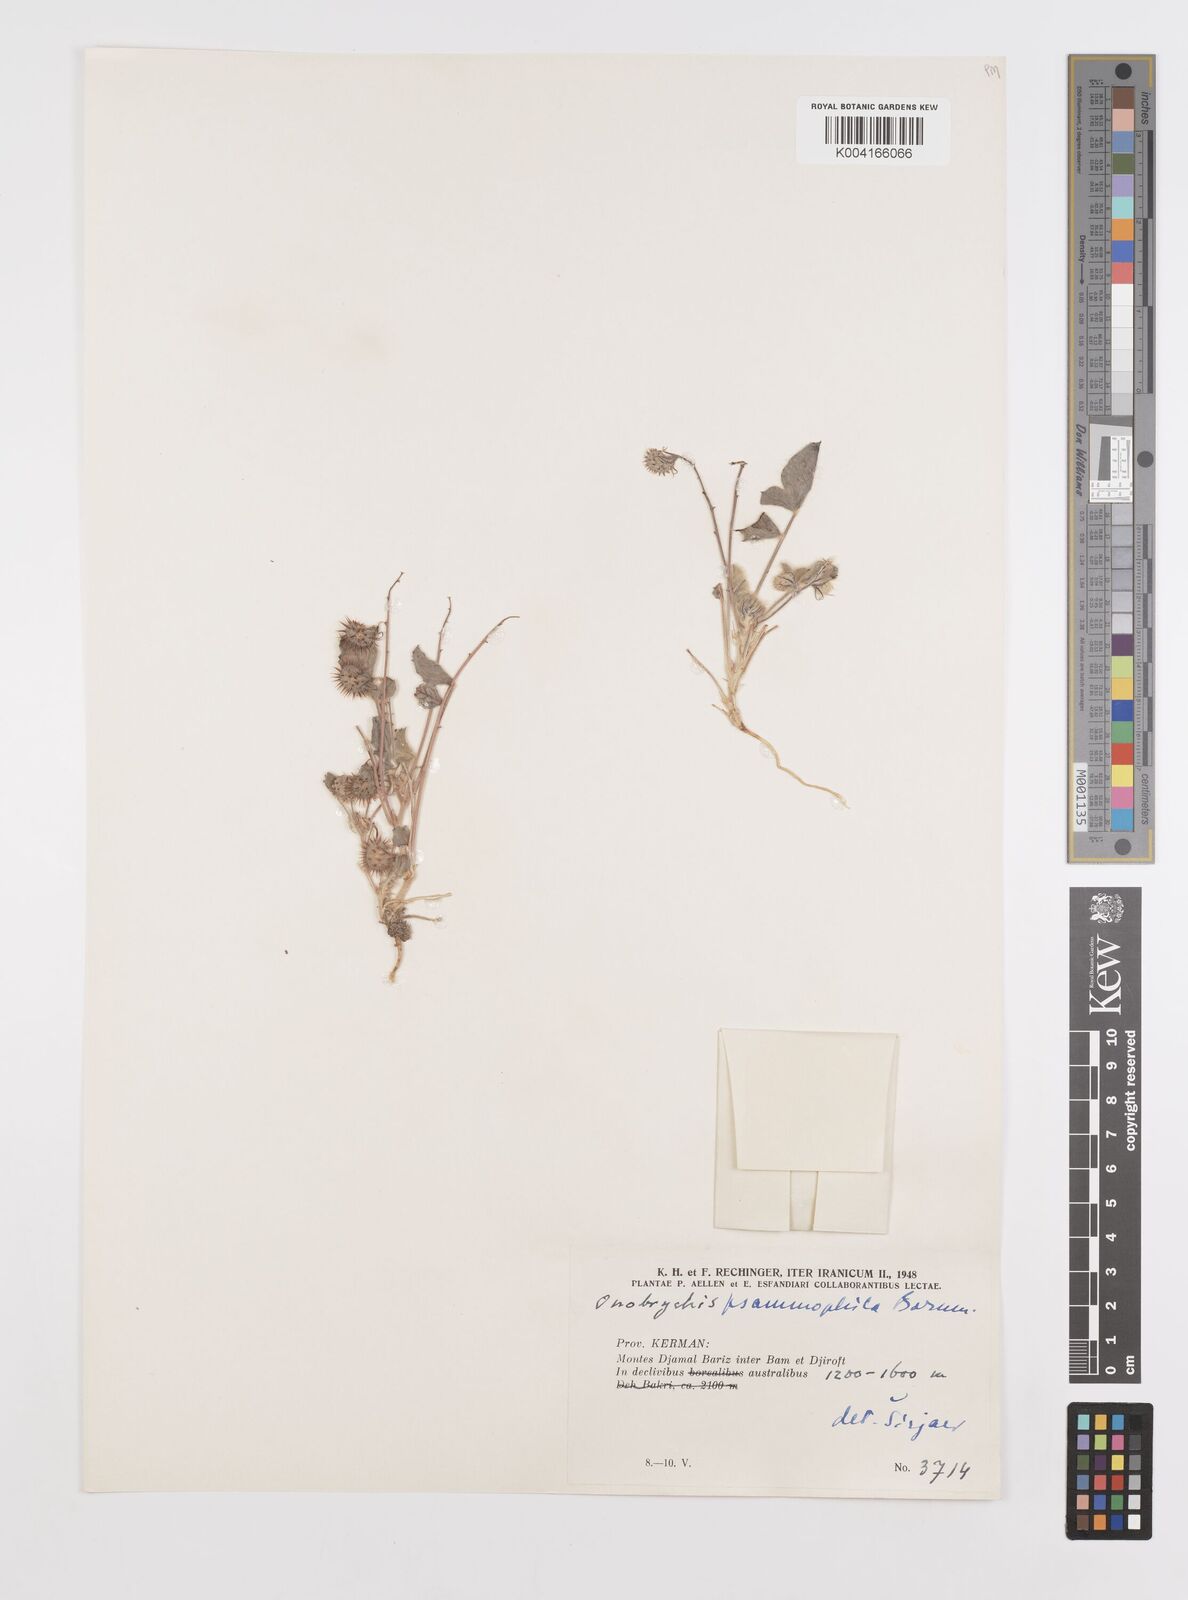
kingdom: Plantae
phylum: Tracheophyta
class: Magnoliopsida
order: Fabales
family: Fabaceae
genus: Onobrychis
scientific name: Onobrychis aucheri
